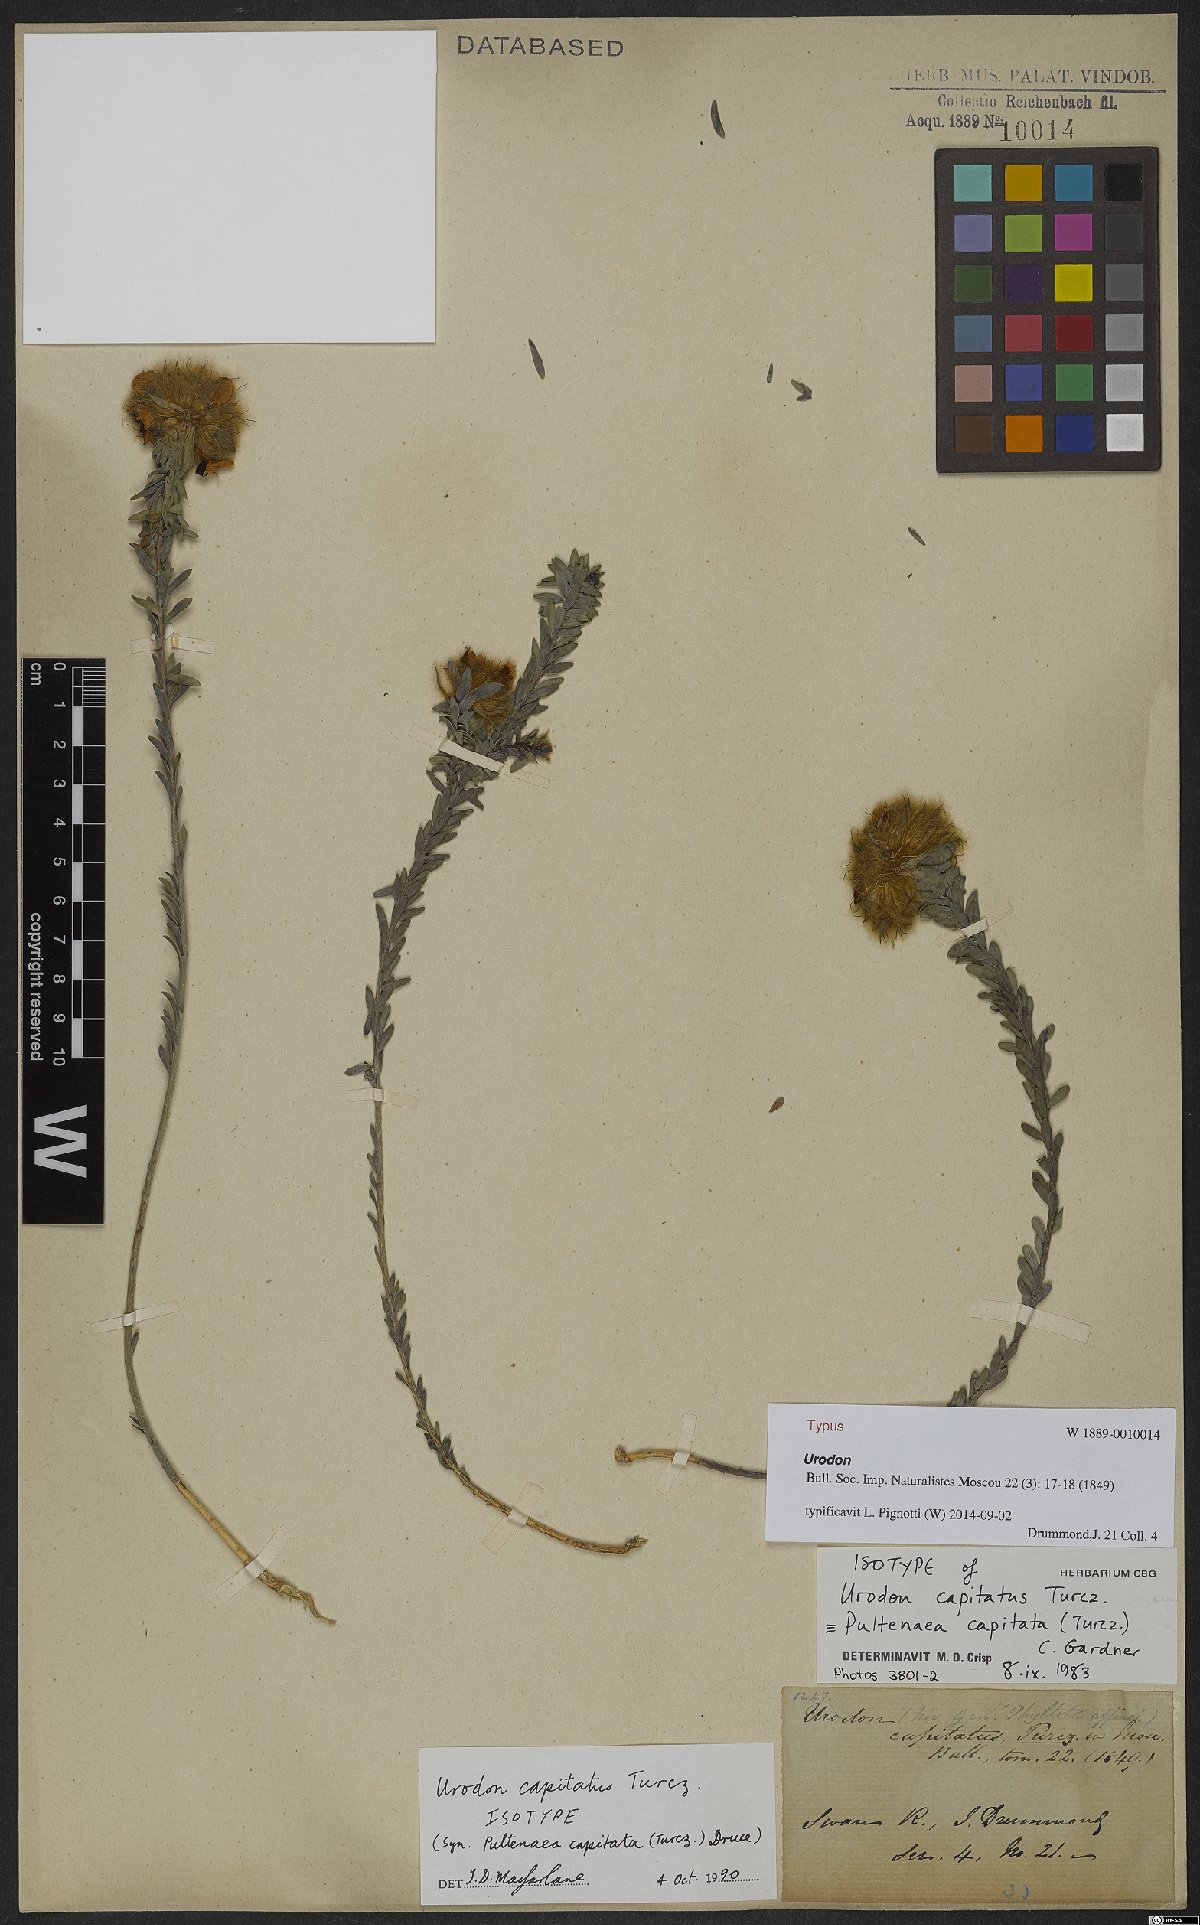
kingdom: Plantae
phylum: Tracheophyta
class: Magnoliopsida
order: Fabales
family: Fabaceae
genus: Urodon
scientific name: Urodon capitatus
